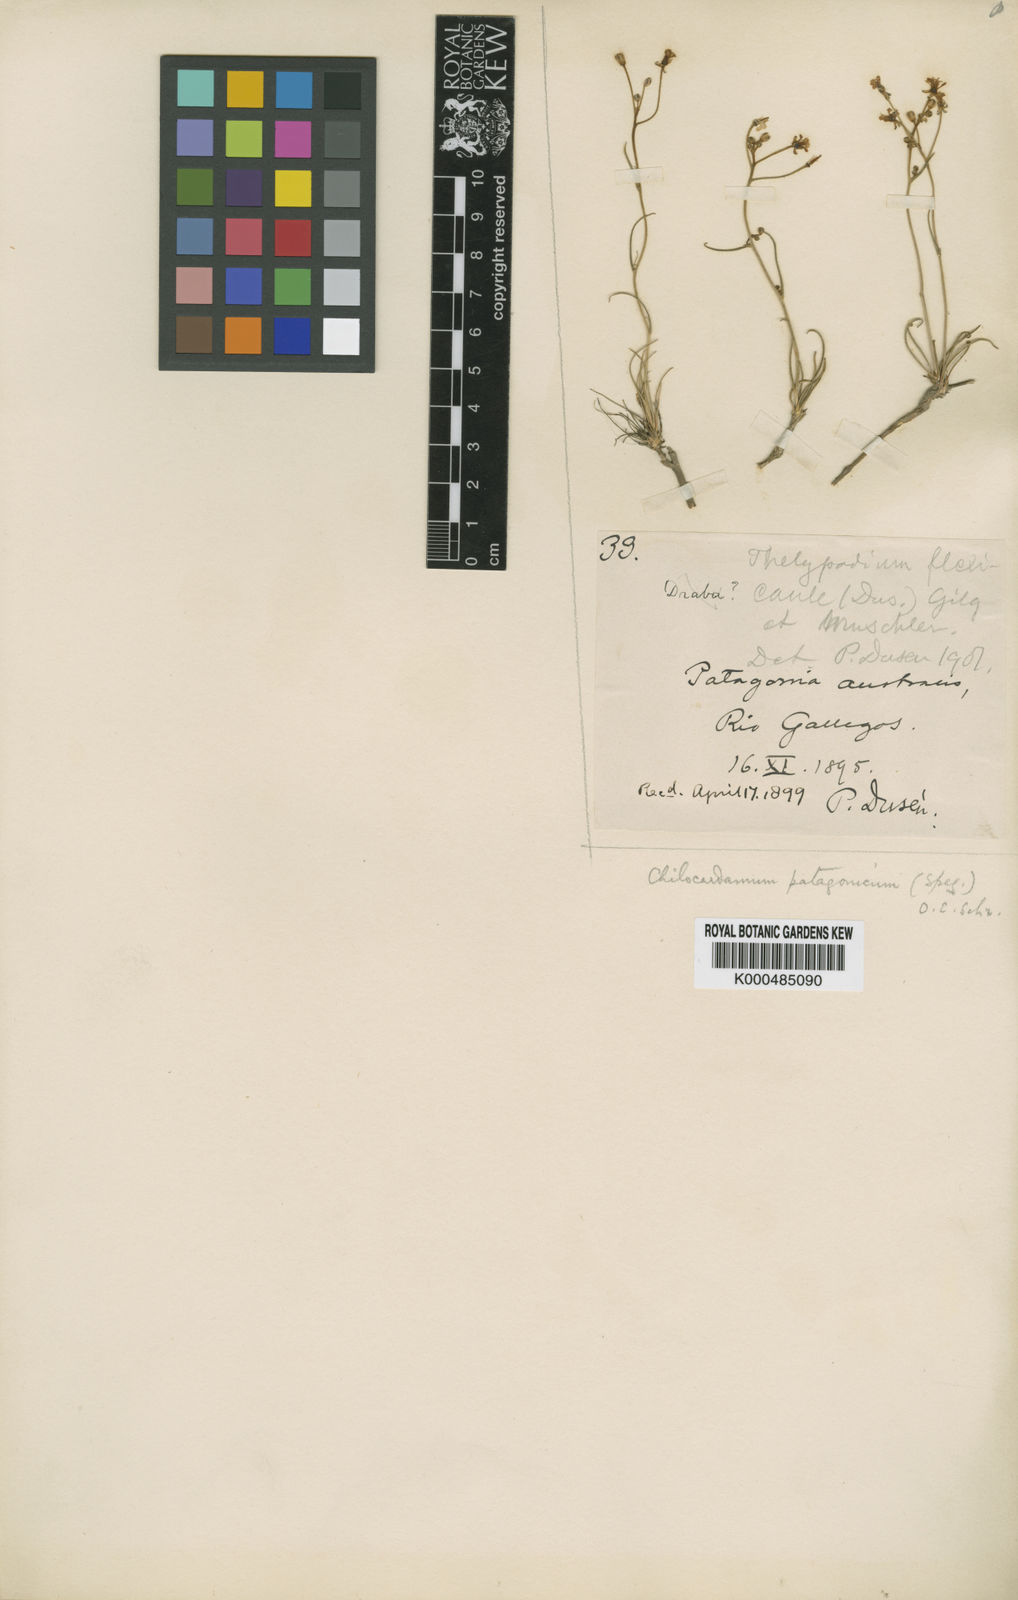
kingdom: Plantae
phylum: Tracheophyta
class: Magnoliopsida
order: Brassicales
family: Brassicaceae
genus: Chilocardamum
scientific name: Chilocardamum patagonicum
